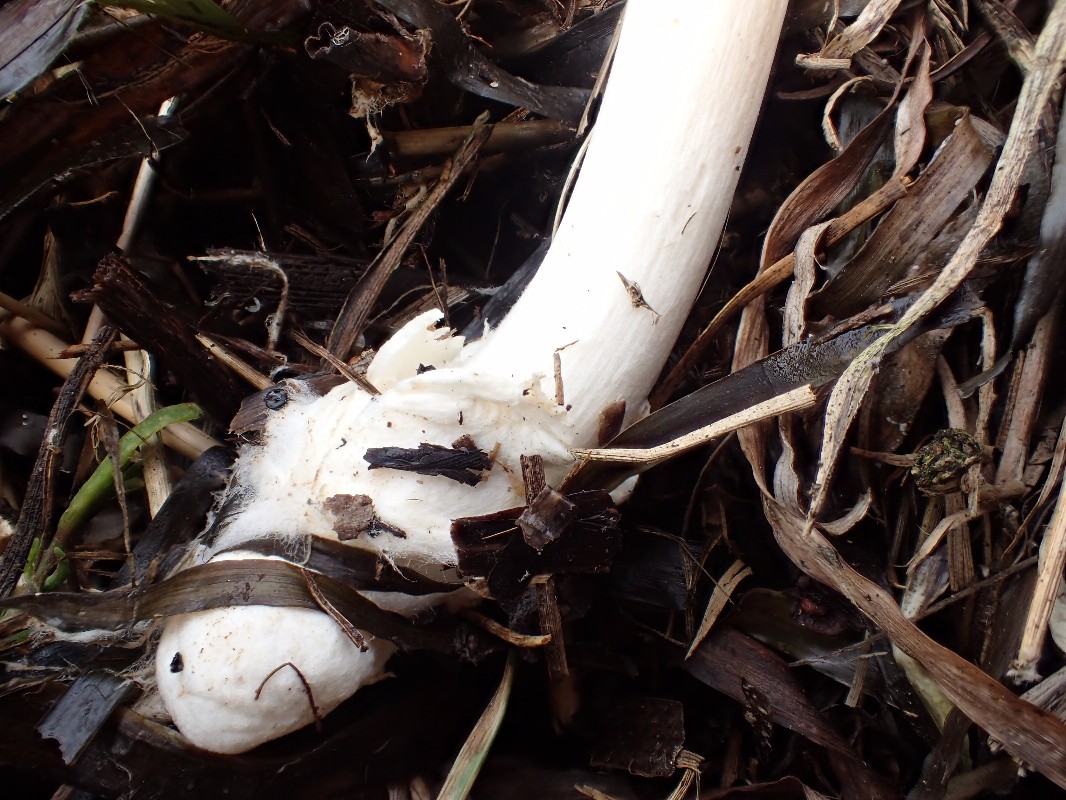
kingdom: Fungi
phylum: Basidiomycota
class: Agaricomycetes
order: Agaricales
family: Pluteaceae
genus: Volvopluteus
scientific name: Volvopluteus gloiocephalus
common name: høj posesvamp
